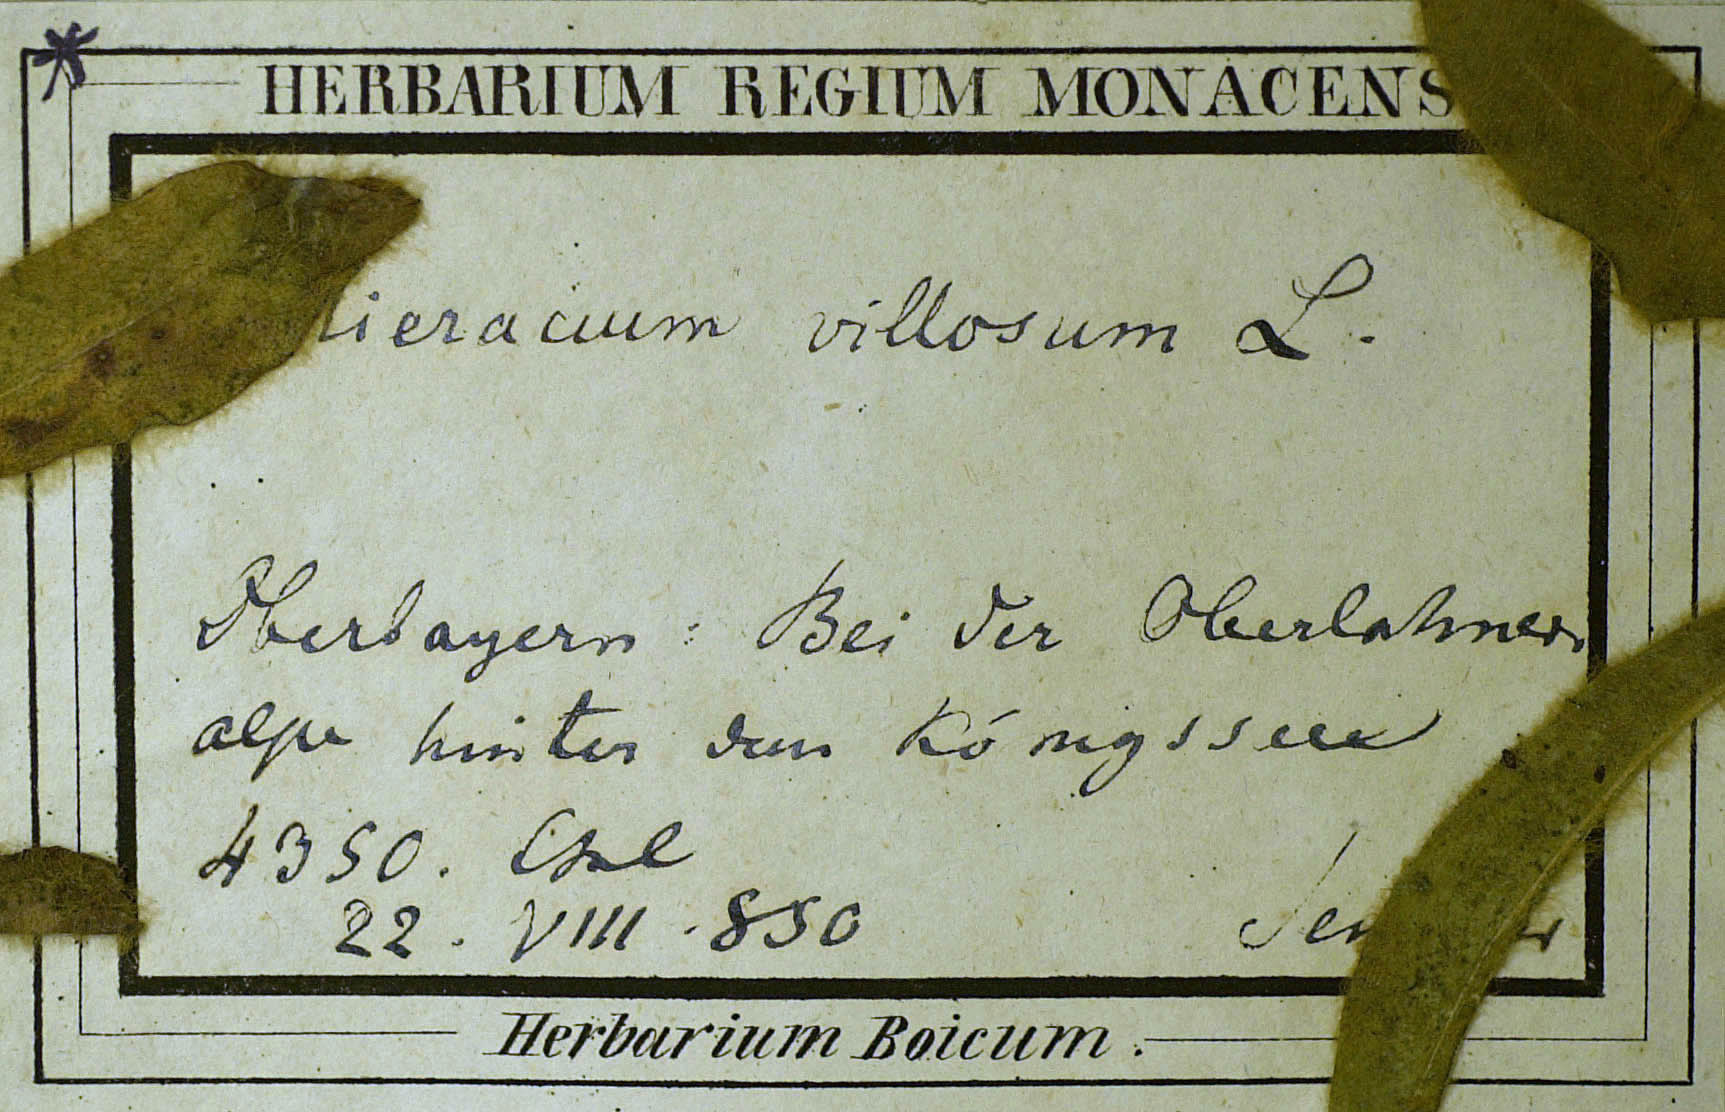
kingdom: Plantae
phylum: Tracheophyta
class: Magnoliopsida
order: Asterales
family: Asteraceae
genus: Hieracium
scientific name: Hieracium pilosum
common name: Fimbriate-pitted hawkweed
